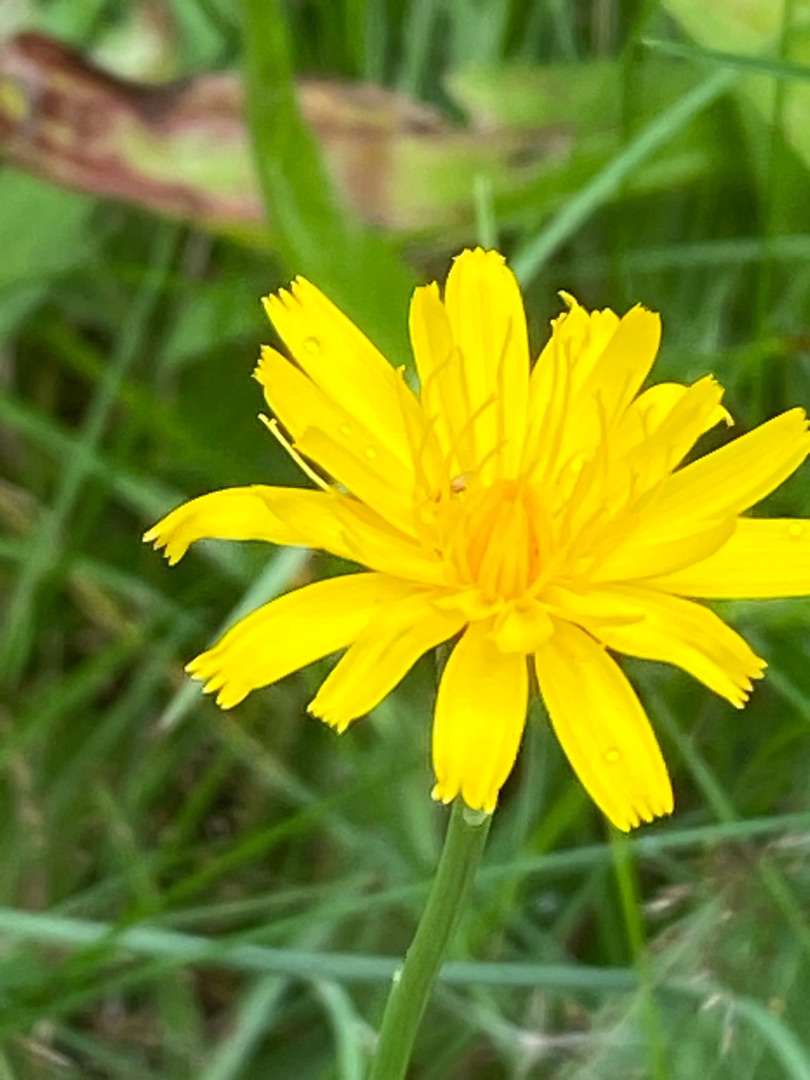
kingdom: Plantae
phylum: Tracheophyta
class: Magnoliopsida
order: Asterales
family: Asteraceae
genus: Hypochaeris
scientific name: Hypochaeris radicata
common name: Almindelig kongepen
